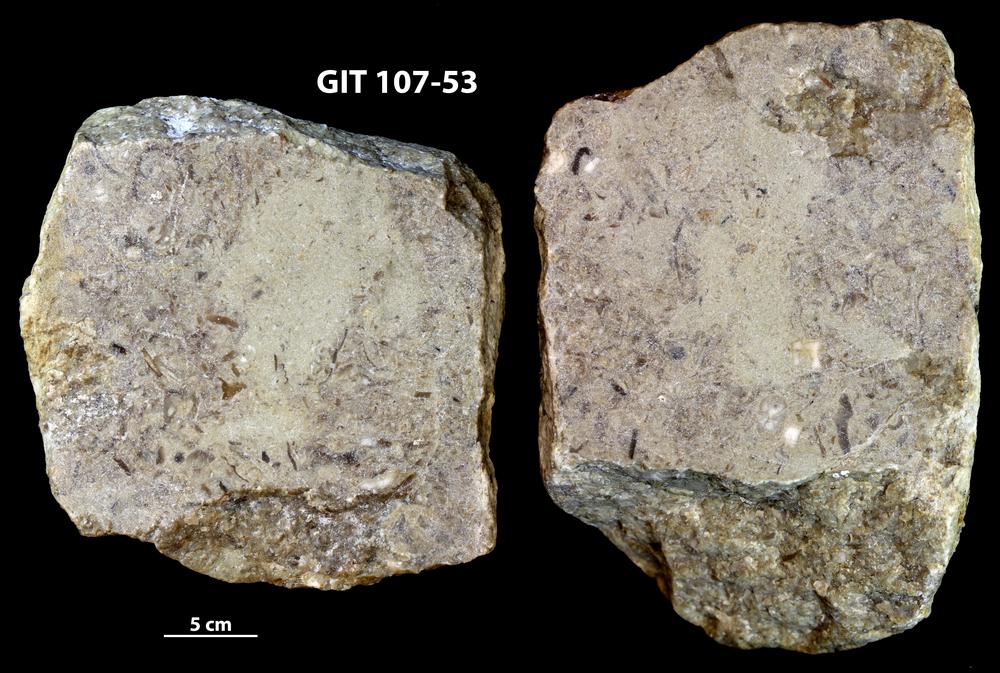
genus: Amphorichnus
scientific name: Amphorichnus
